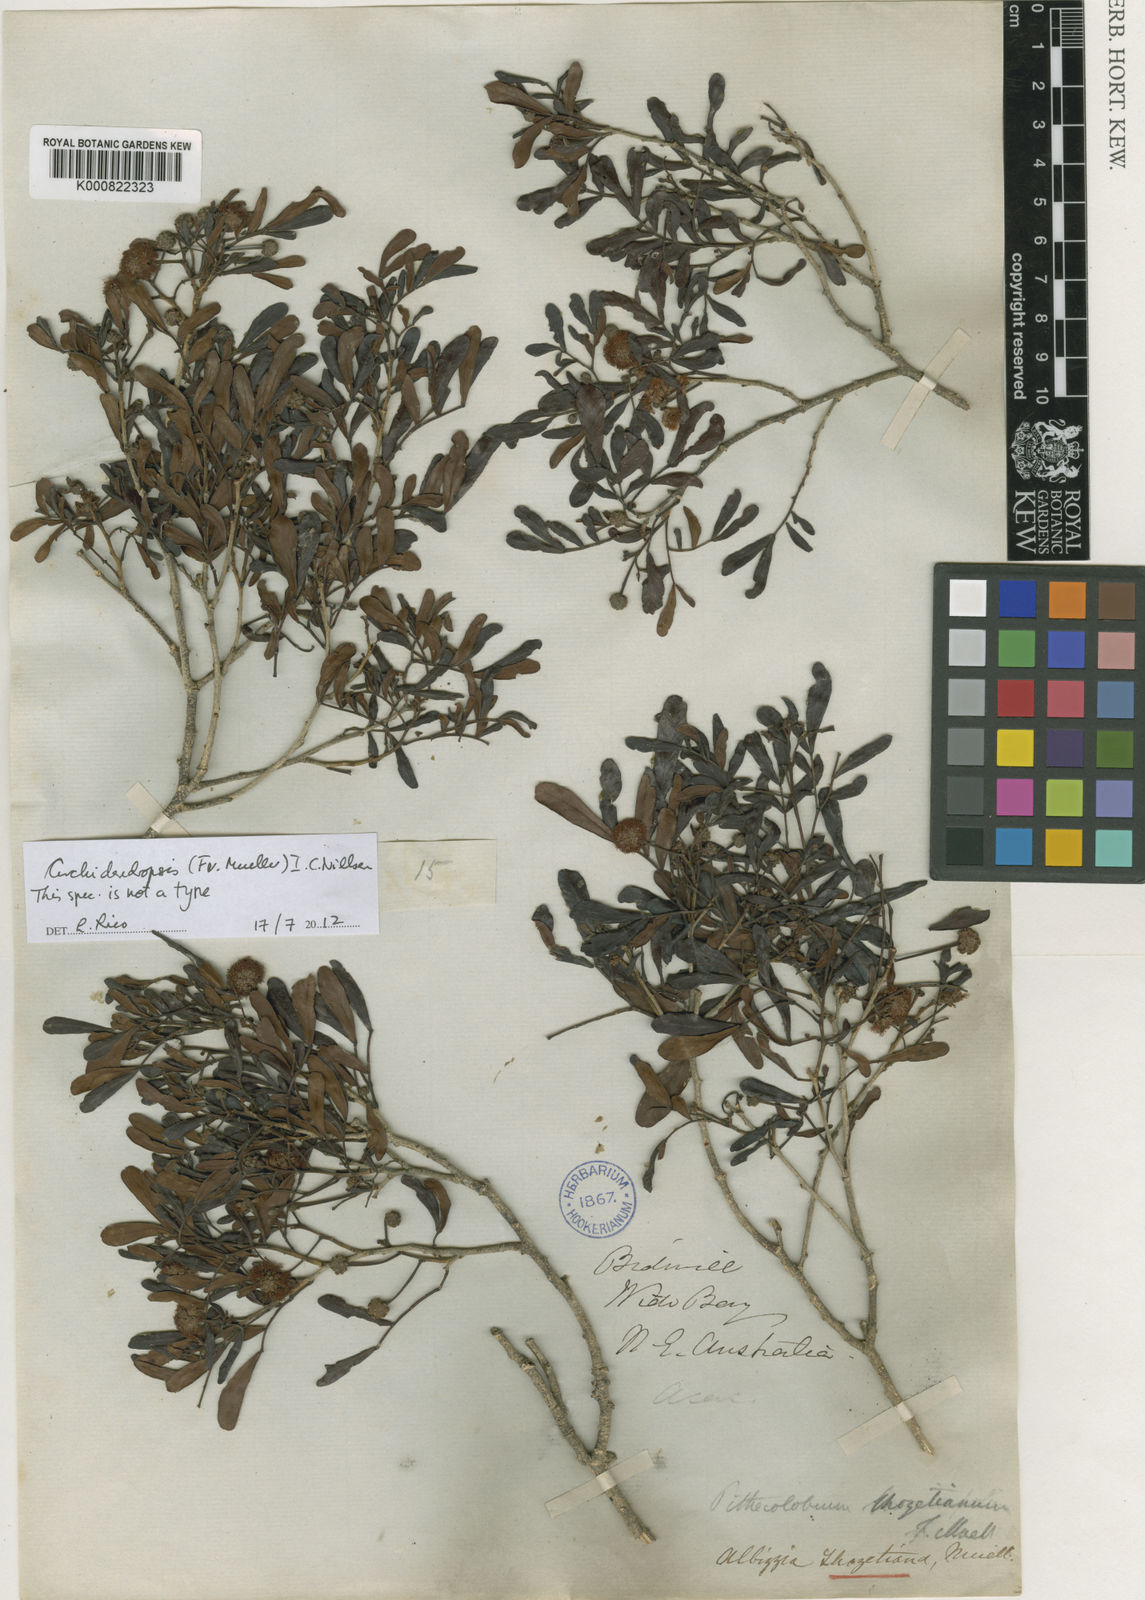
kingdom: Plantae
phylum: Tracheophyta
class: Magnoliopsida
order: Fabales
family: Fabaceae
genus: Archidendropsis
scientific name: Archidendropsis thozetiana
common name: Scrub teatree
